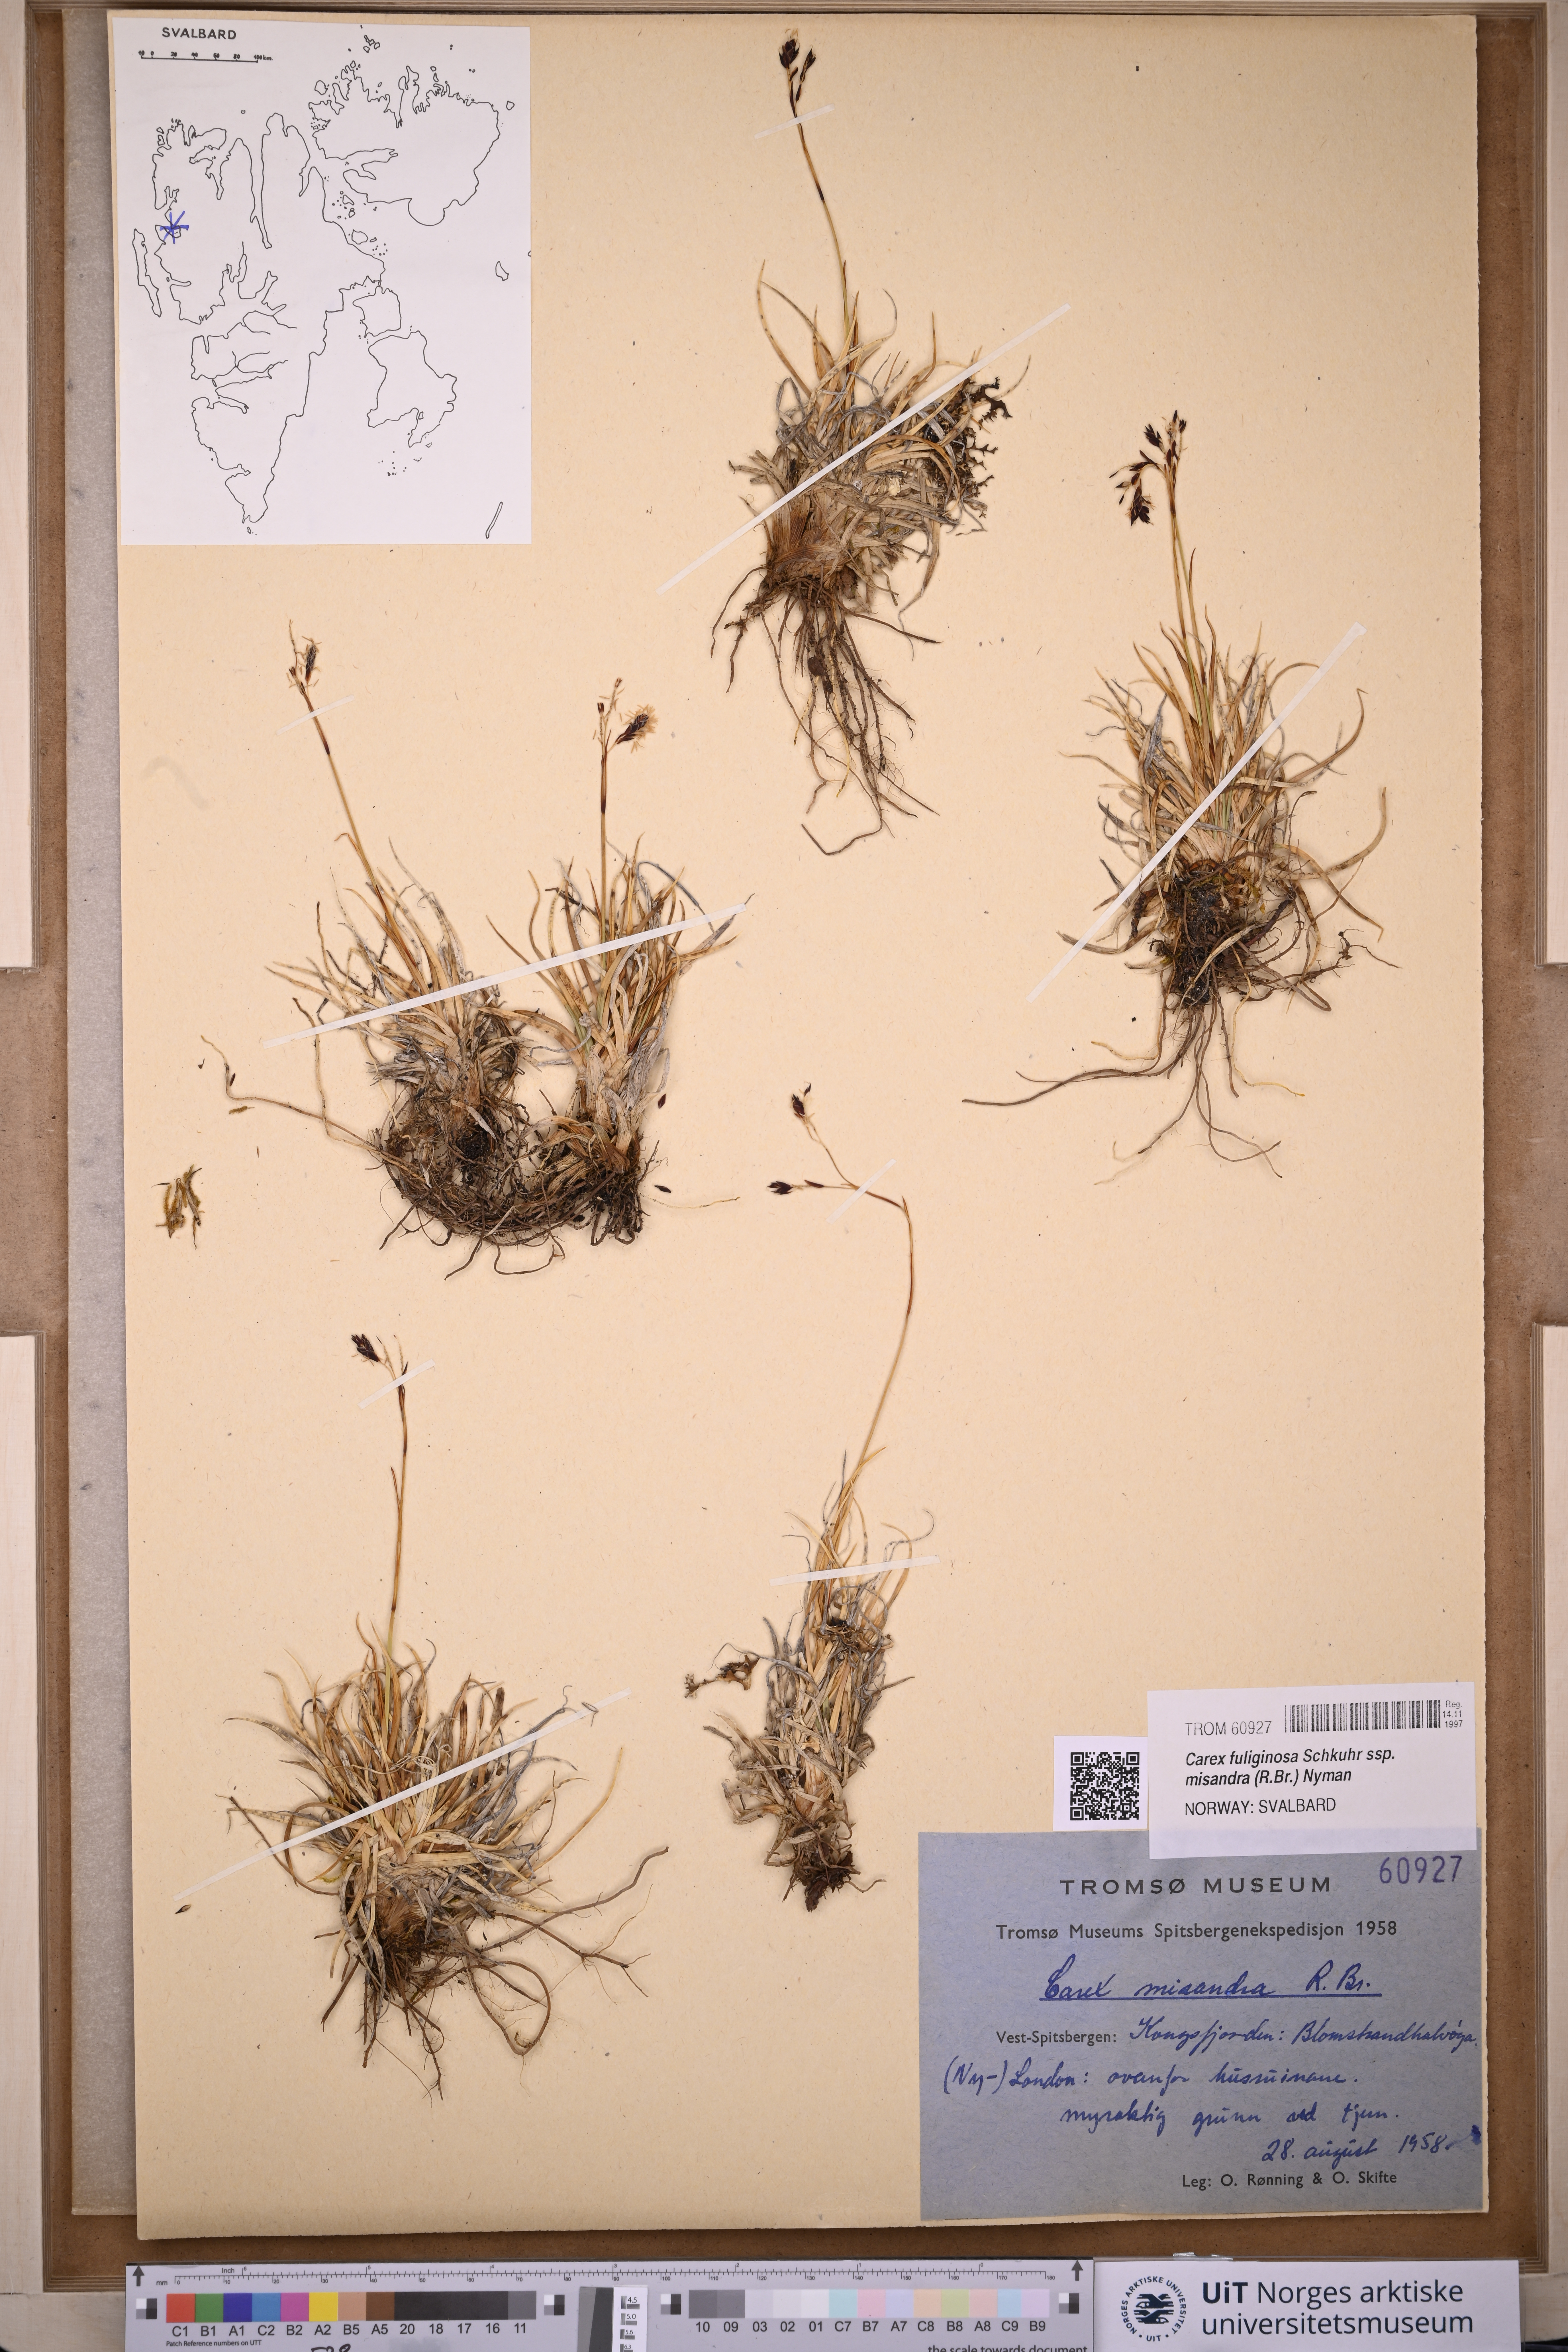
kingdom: Plantae
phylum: Tracheophyta
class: Liliopsida
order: Poales
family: Cyperaceae
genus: Carex
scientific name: Carex fuliginosa
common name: Few-flowered sedge
